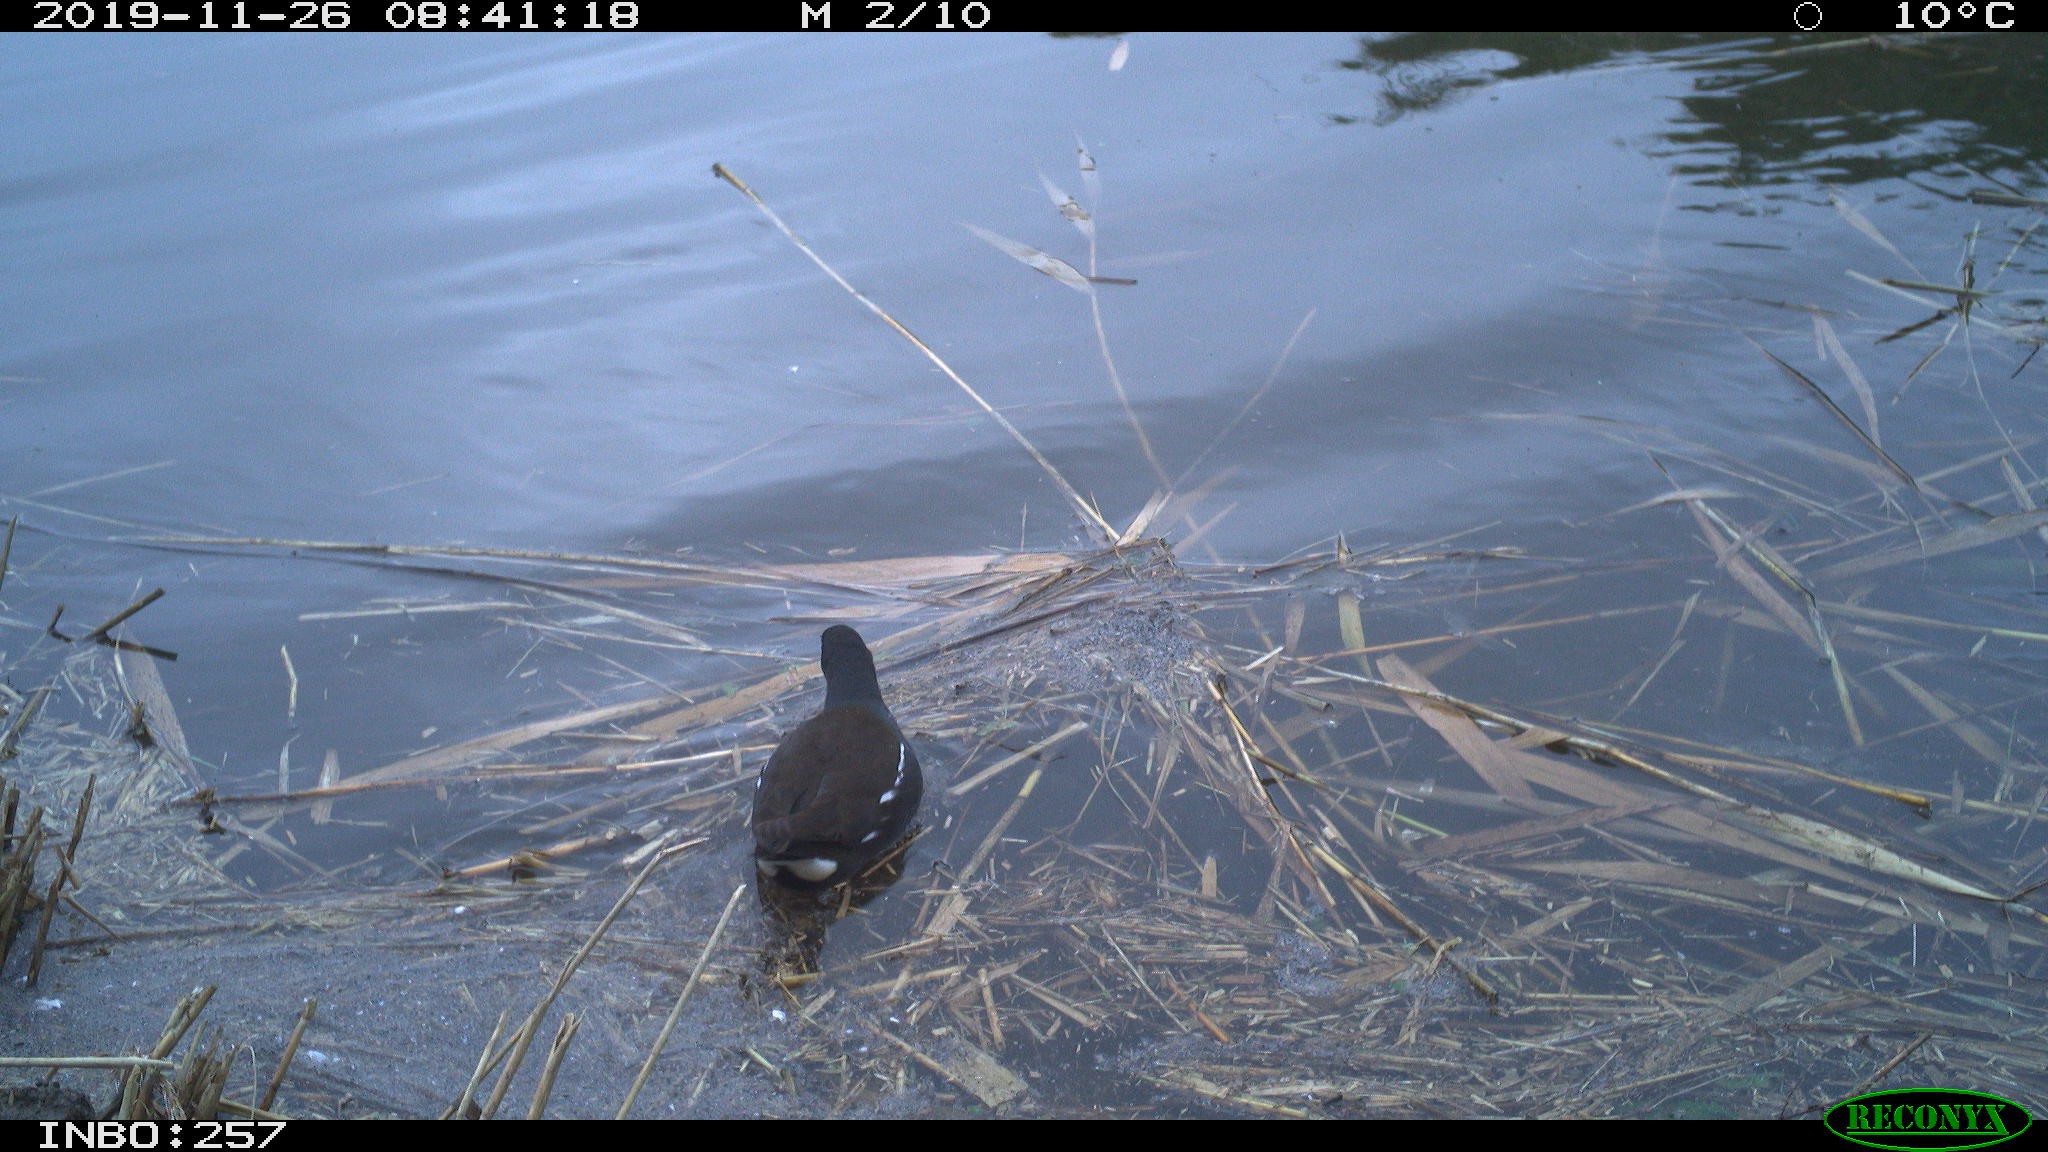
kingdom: Animalia
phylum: Chordata
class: Aves
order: Gruiformes
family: Rallidae
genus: Gallinula
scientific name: Gallinula chloropus
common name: Common moorhen
